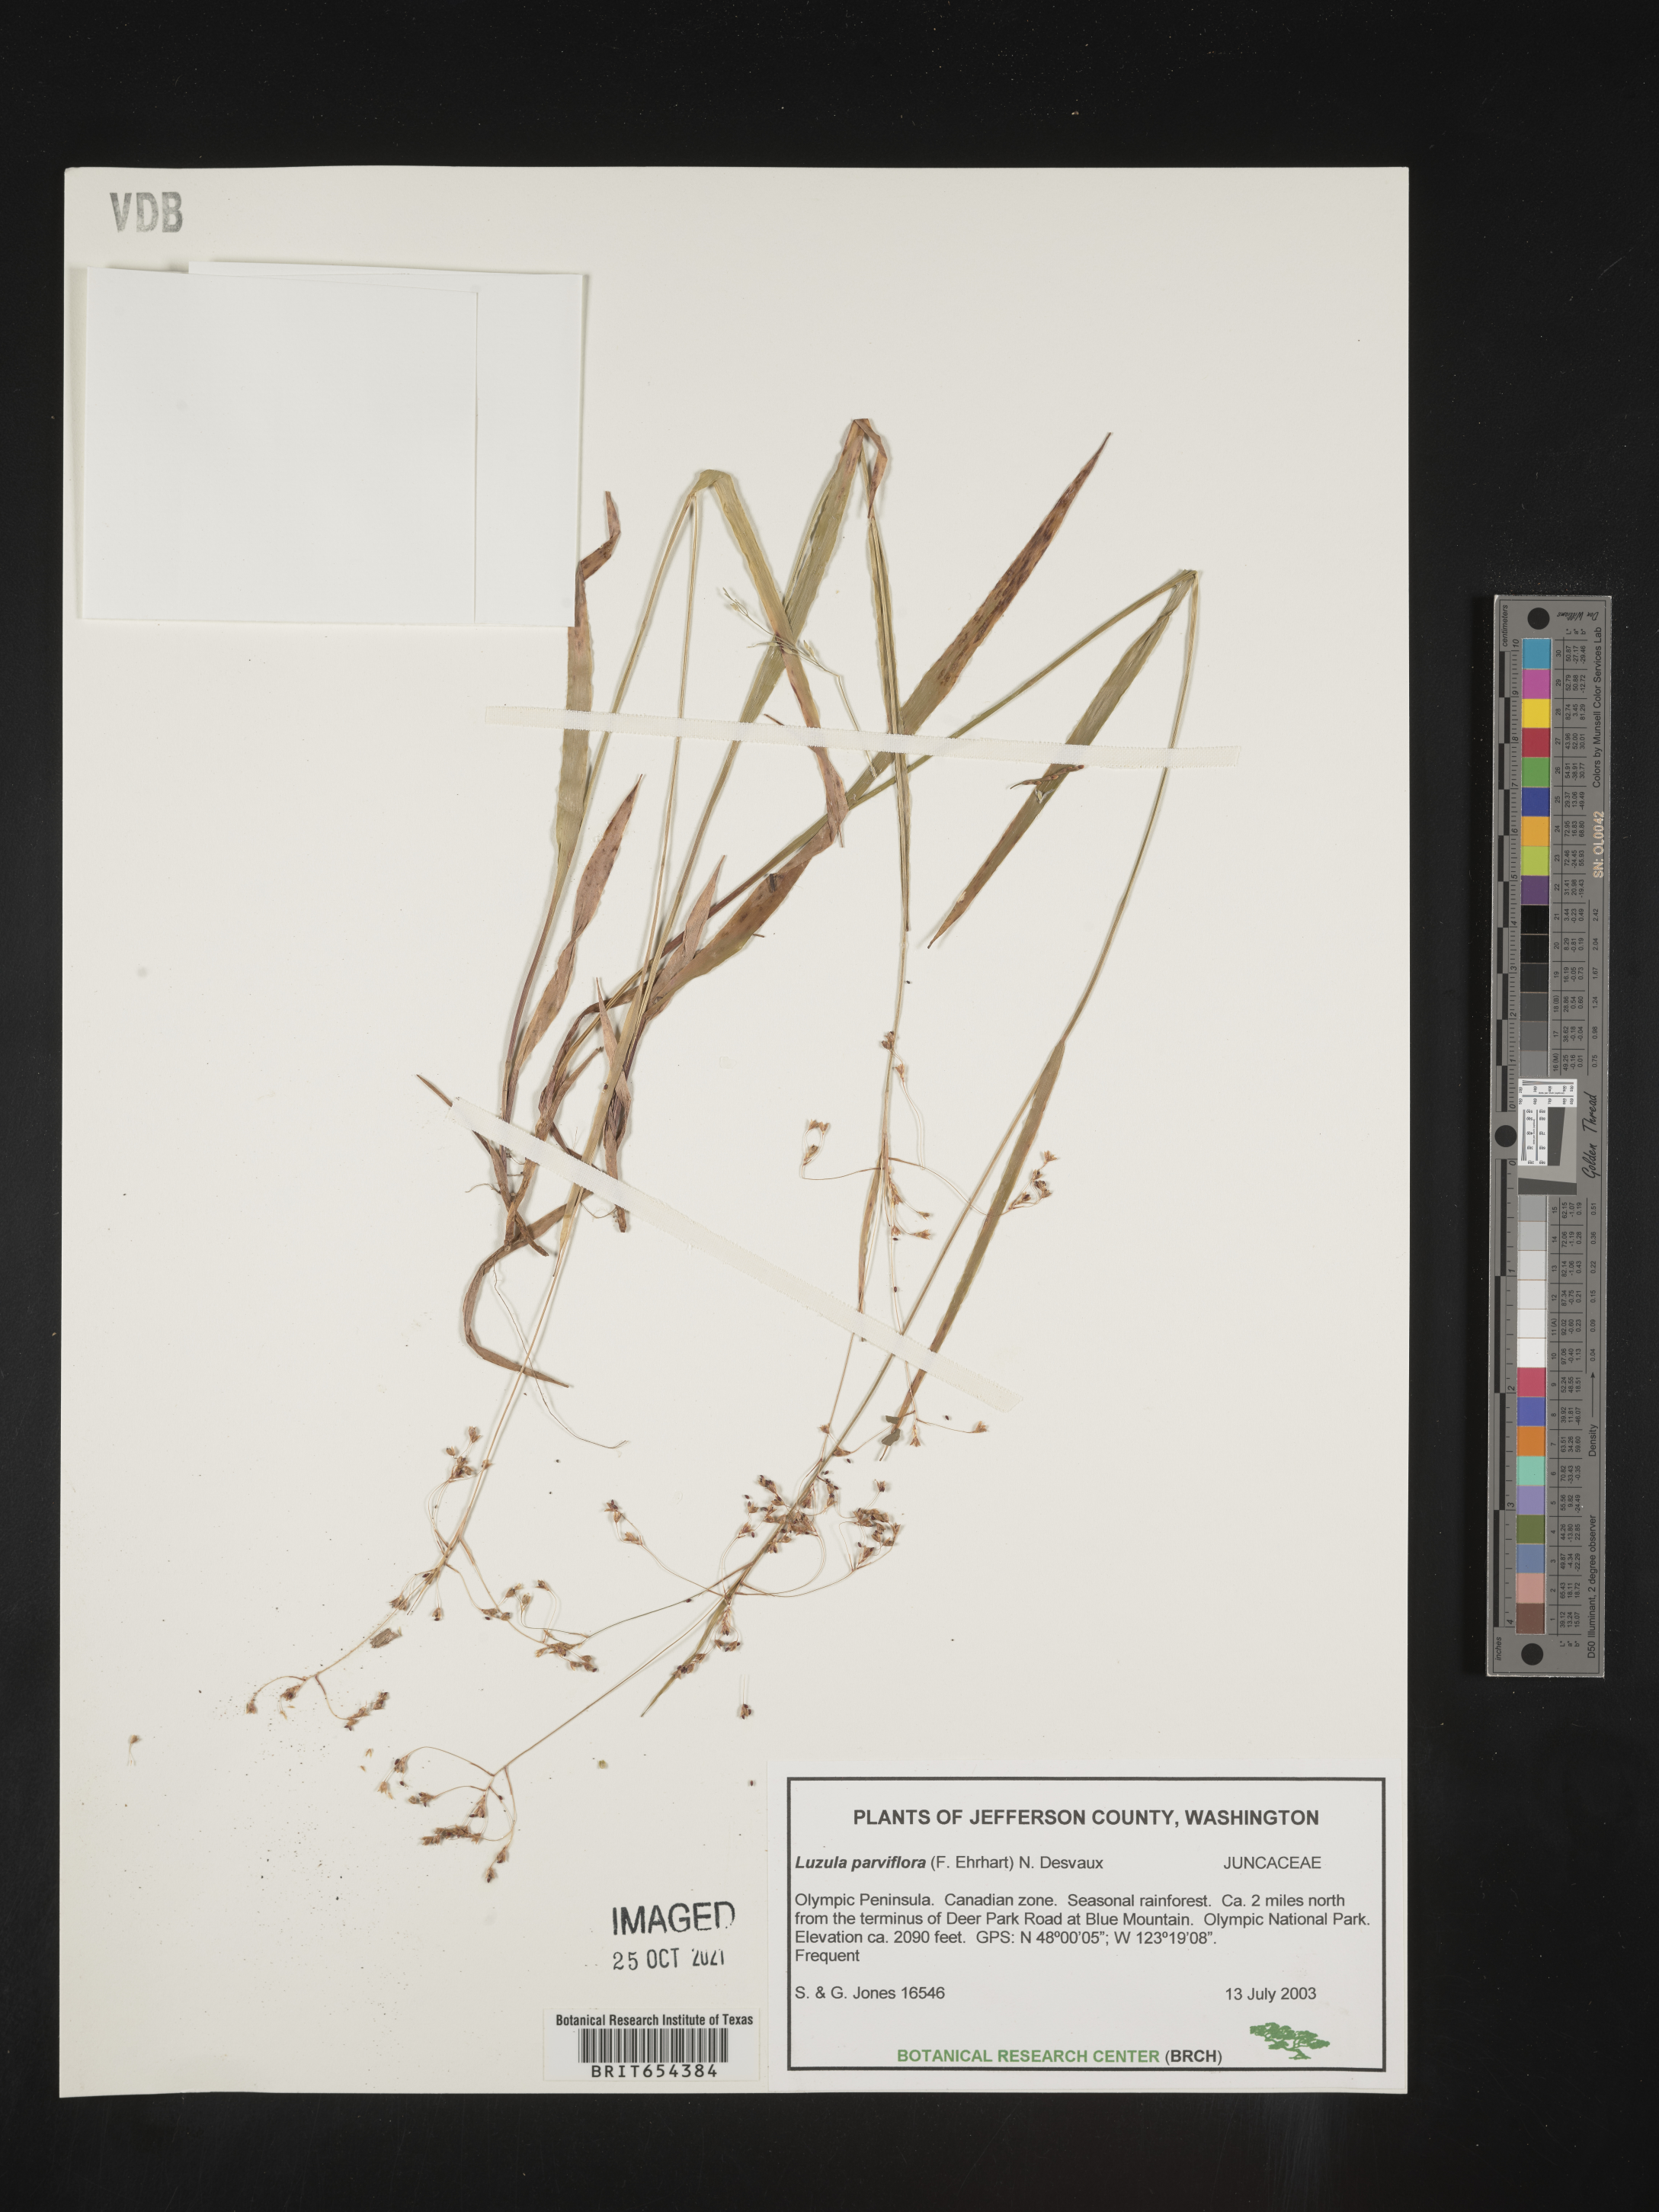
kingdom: Plantae
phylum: Tracheophyta
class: Liliopsida
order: Poales
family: Juncaceae
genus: Luzula
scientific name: Luzula parviflora
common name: Millet woodrush
